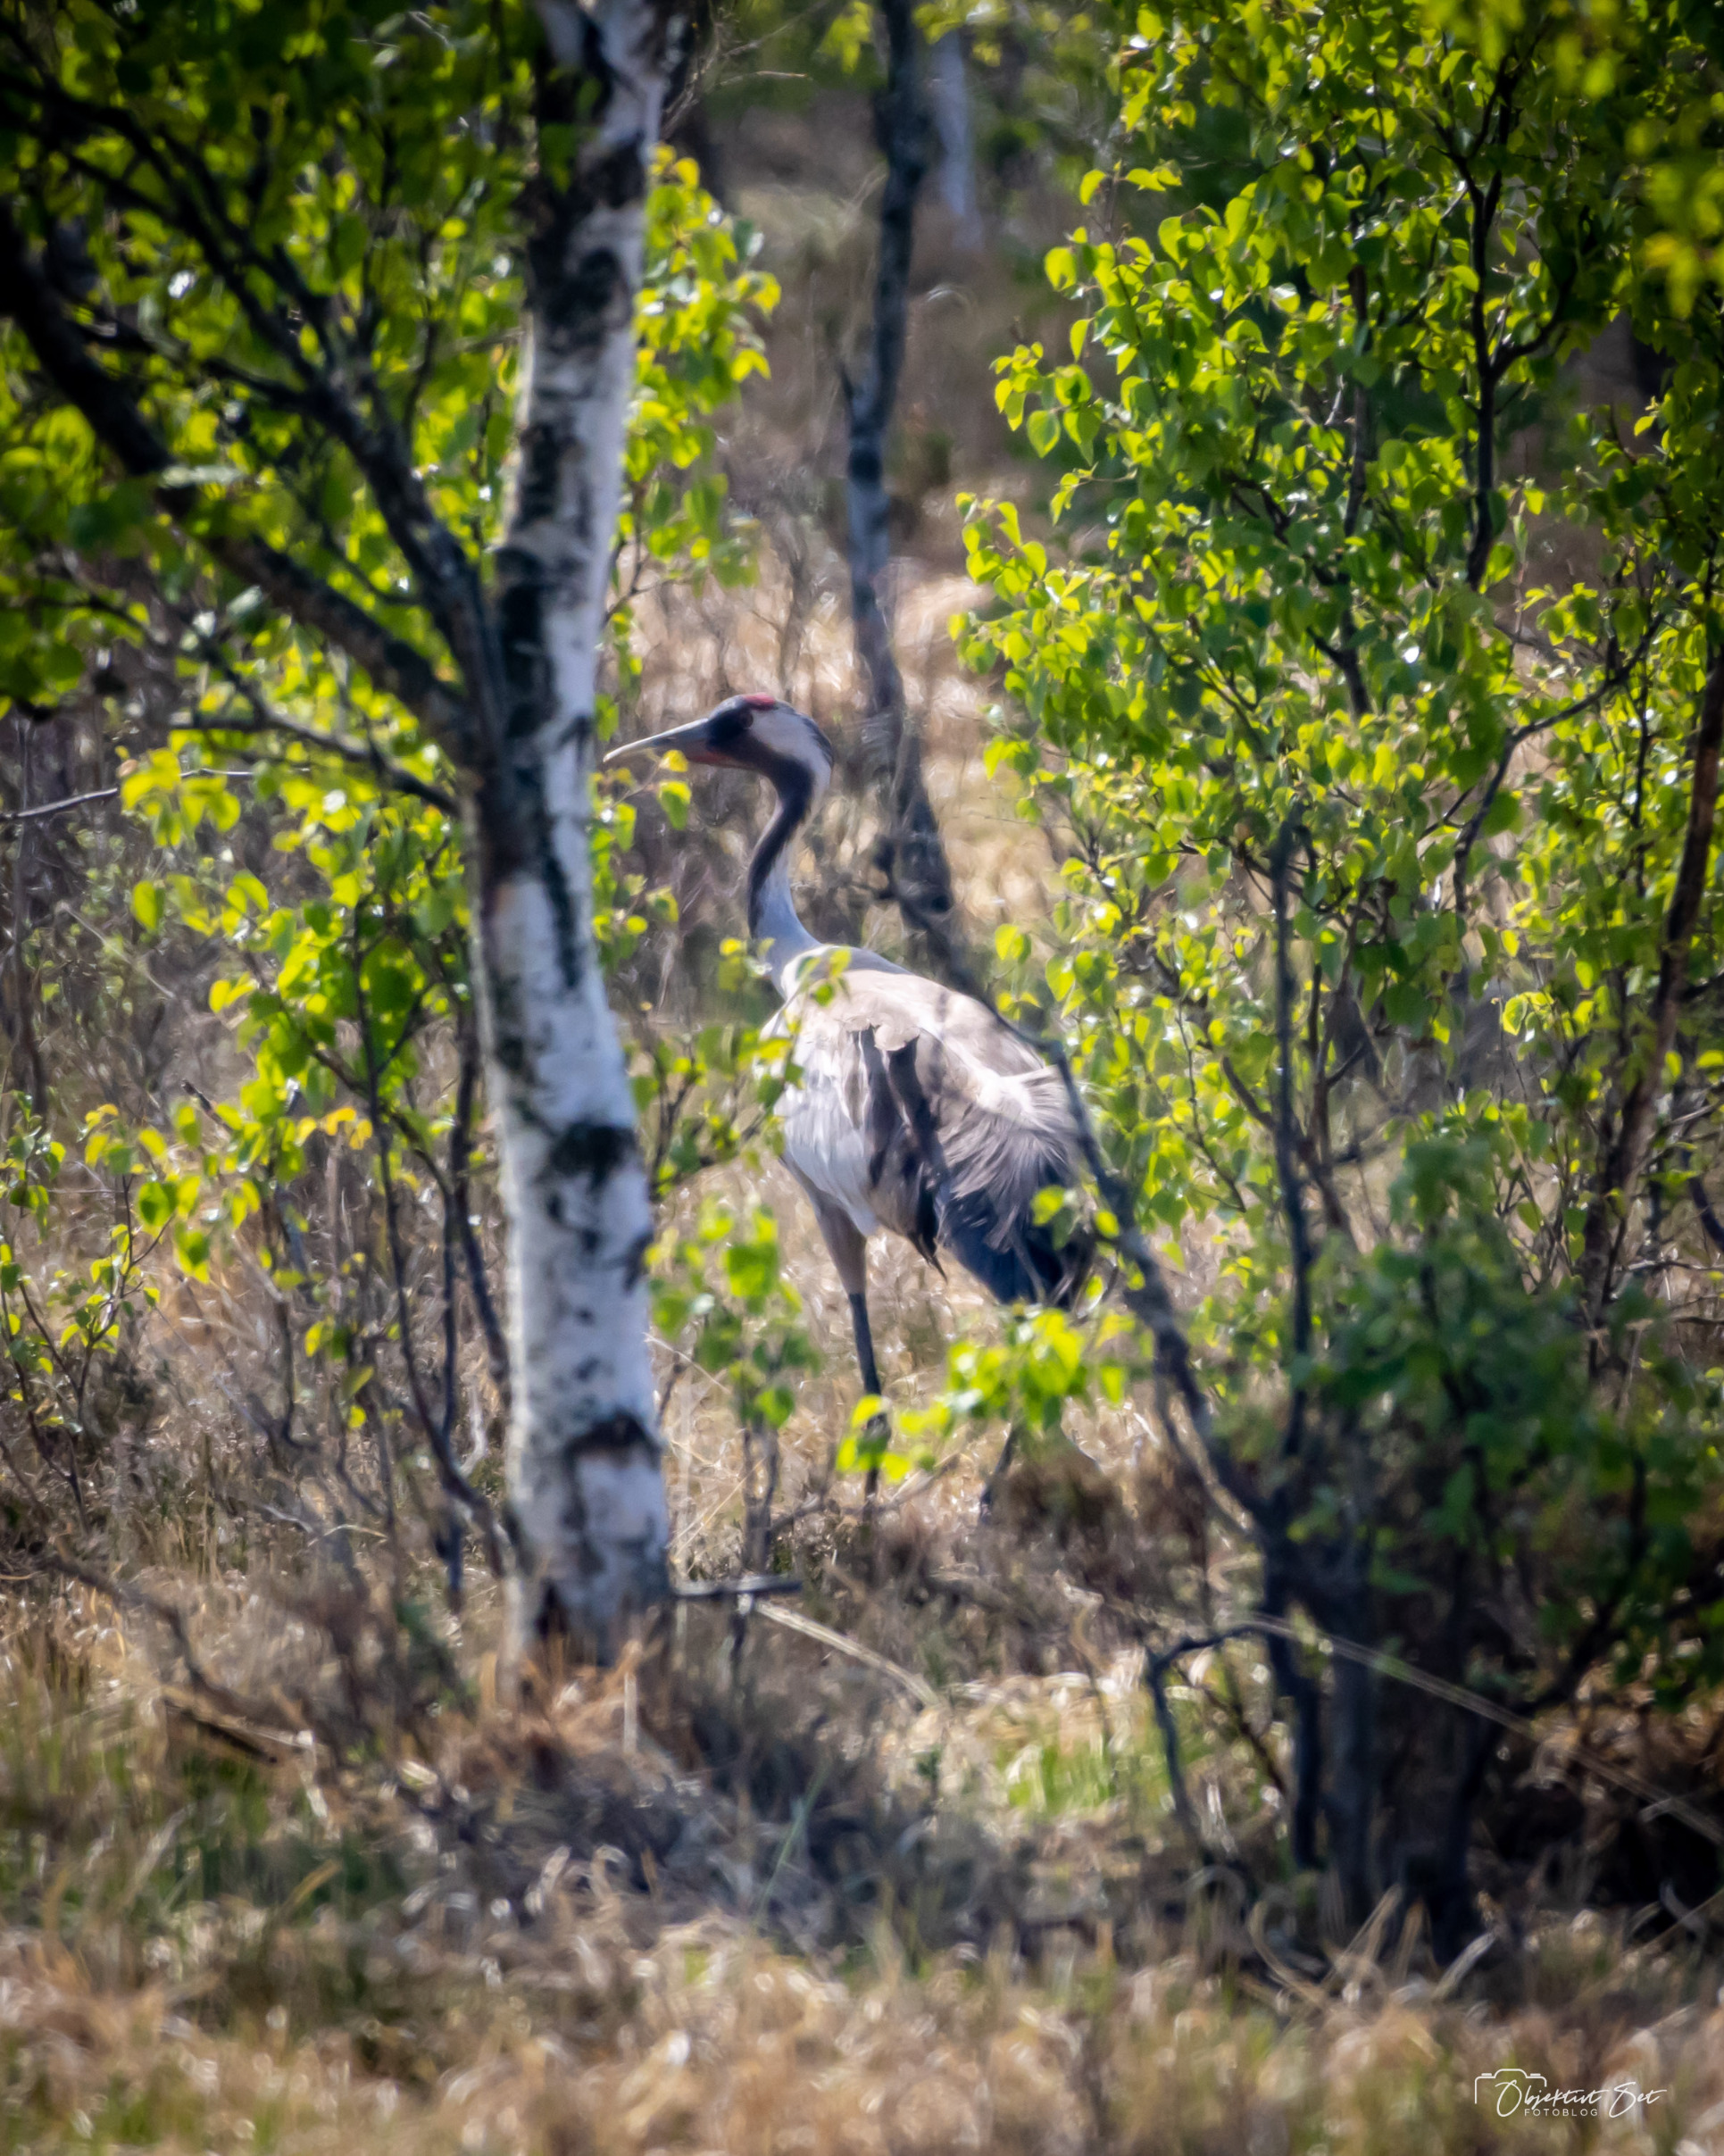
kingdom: Animalia
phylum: Chordata
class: Aves
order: Gruiformes
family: Gruidae
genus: Grus
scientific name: Grus grus
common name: Trane
